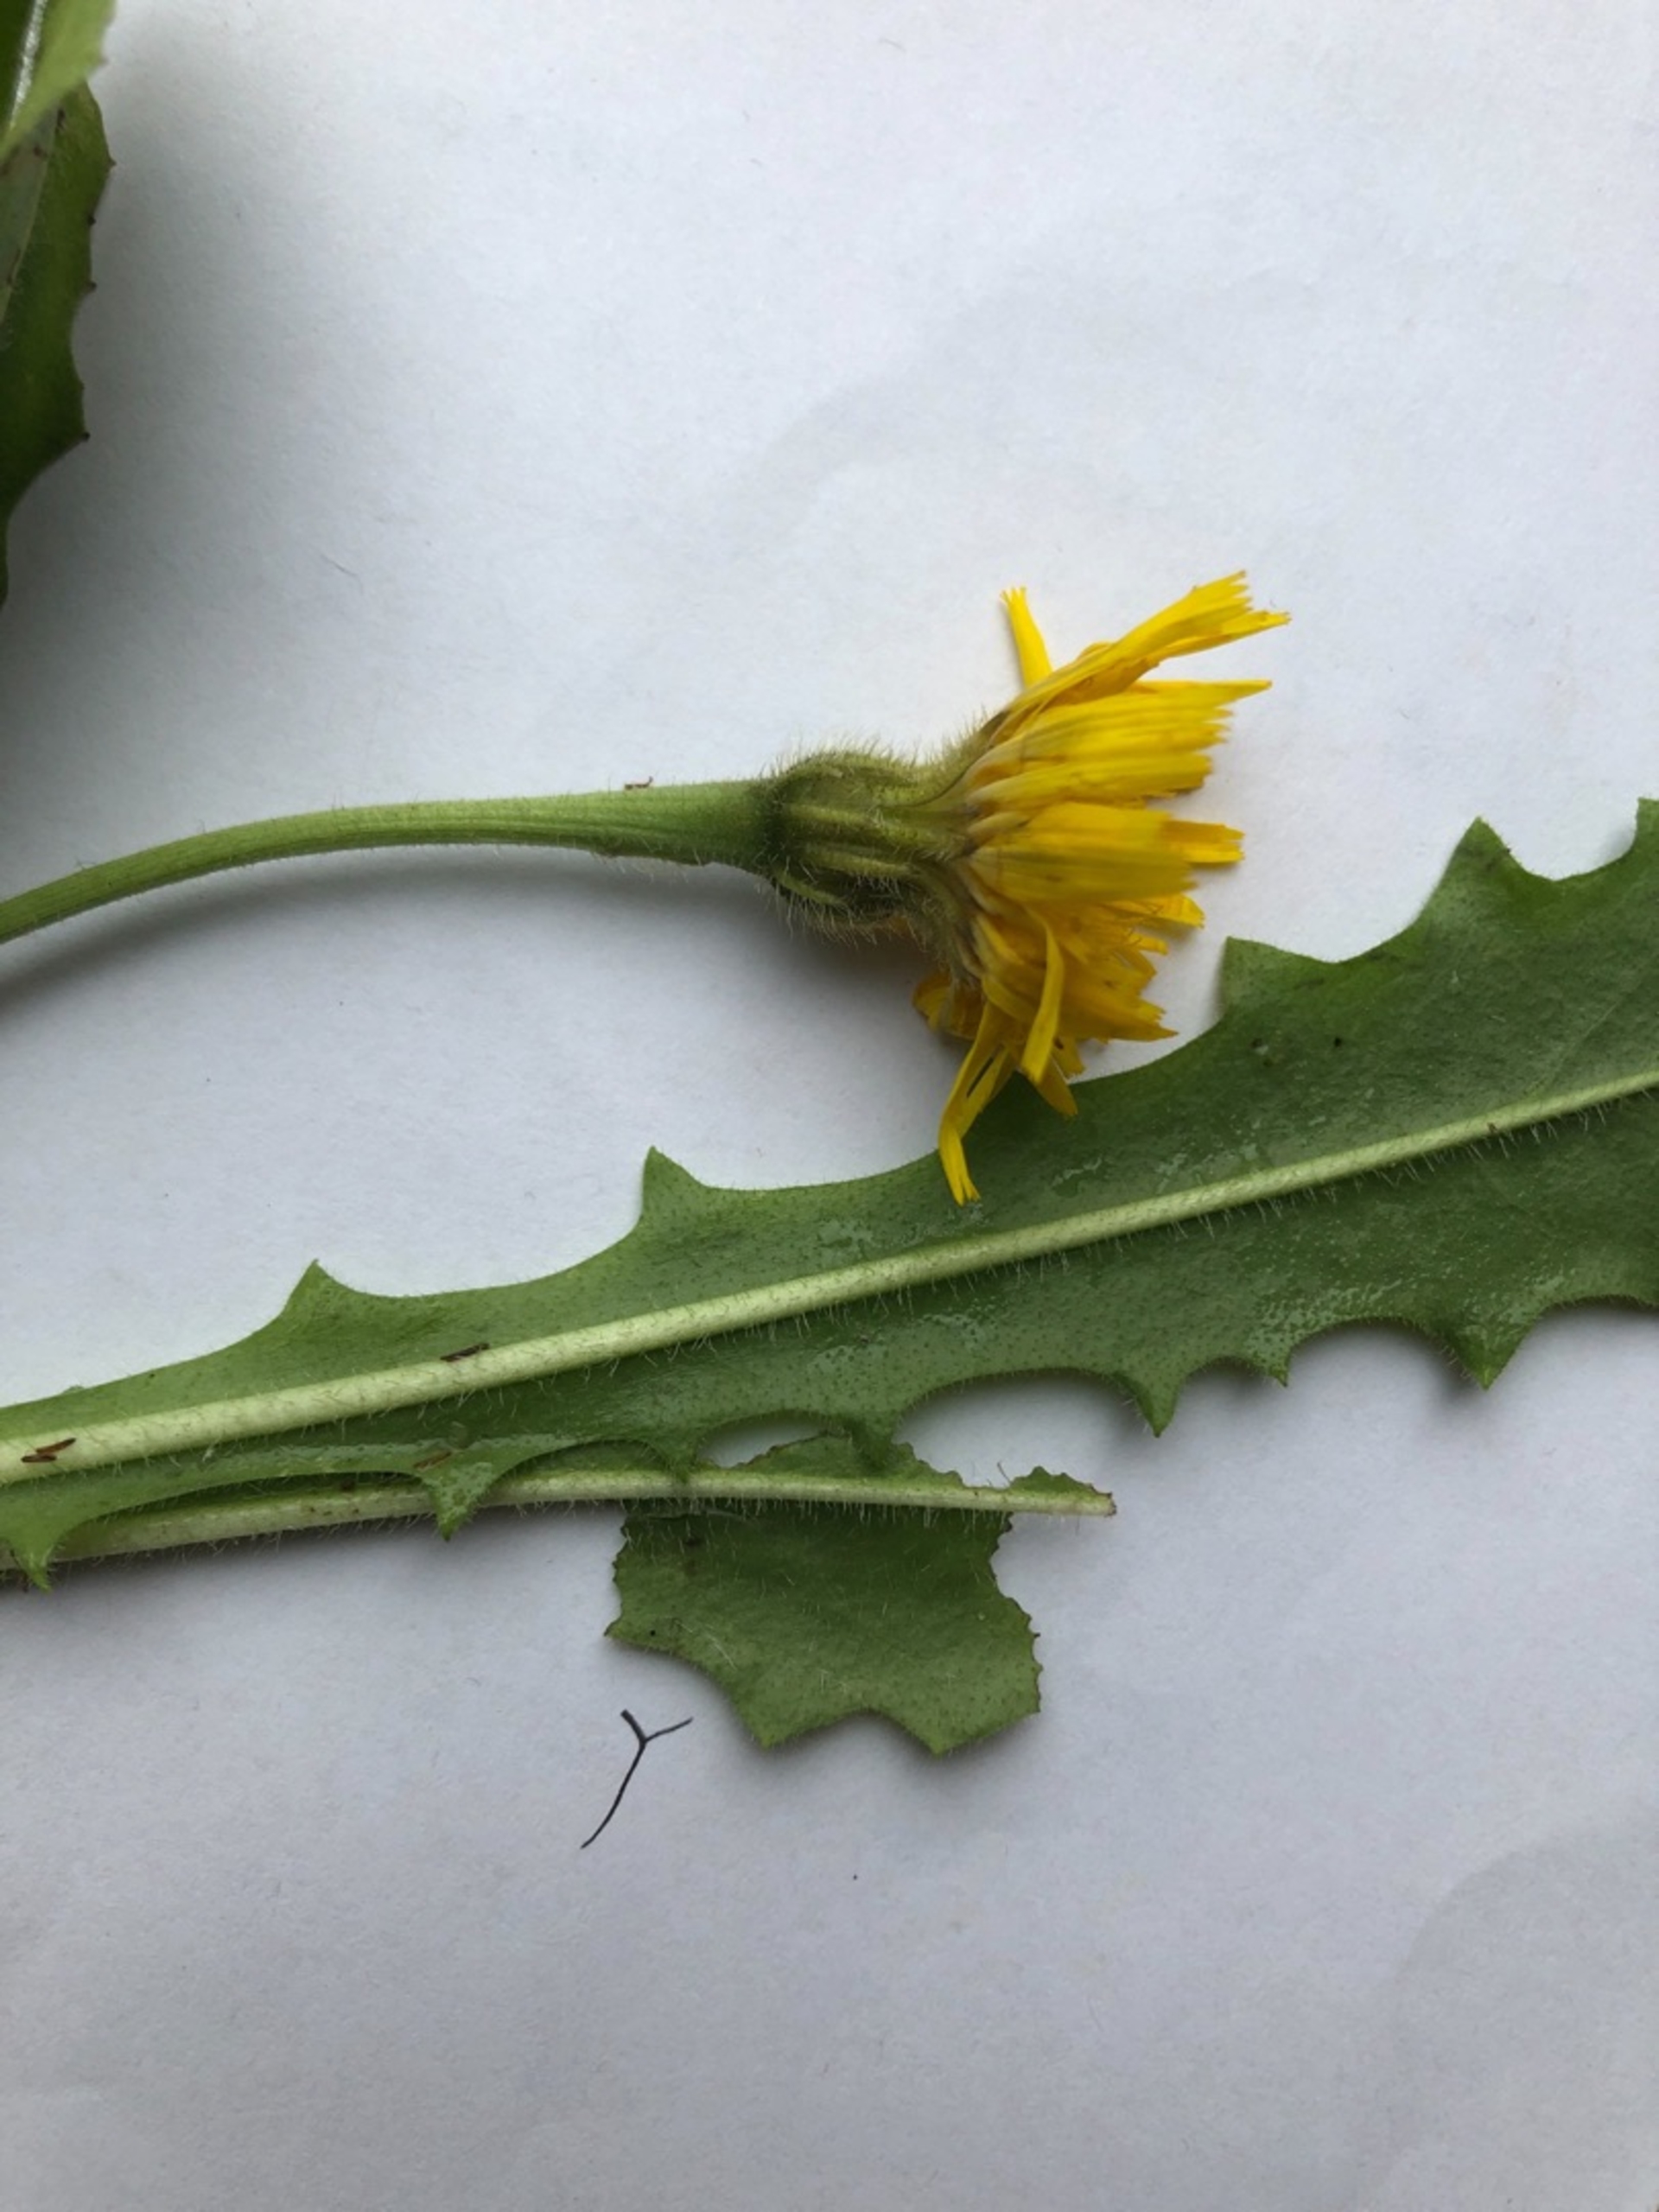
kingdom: Plantae
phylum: Tracheophyta
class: Magnoliopsida
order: Asterales
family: Asteraceae
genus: Leontodon
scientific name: Leontodon hispidus
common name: Stivhåret borst
